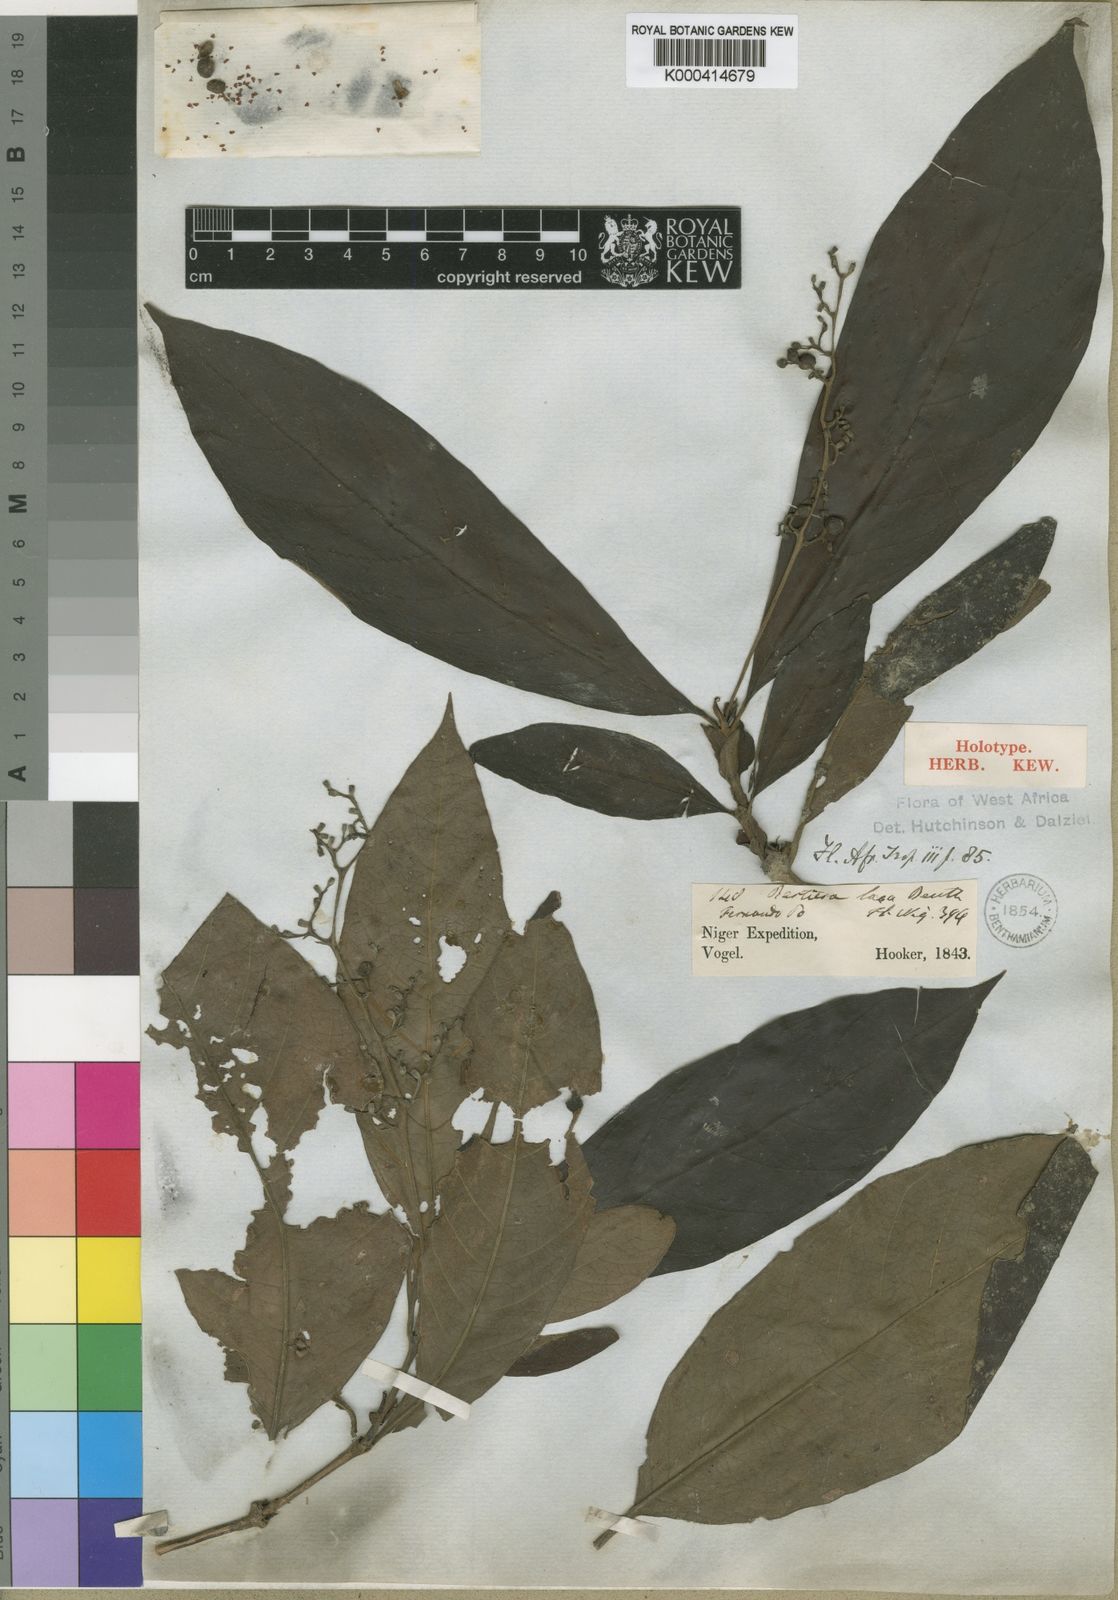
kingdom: Plantae
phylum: Tracheophyta
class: Magnoliopsida
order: Gentianales
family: Rubiaceae
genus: Bertiera
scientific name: Bertiera laxa
